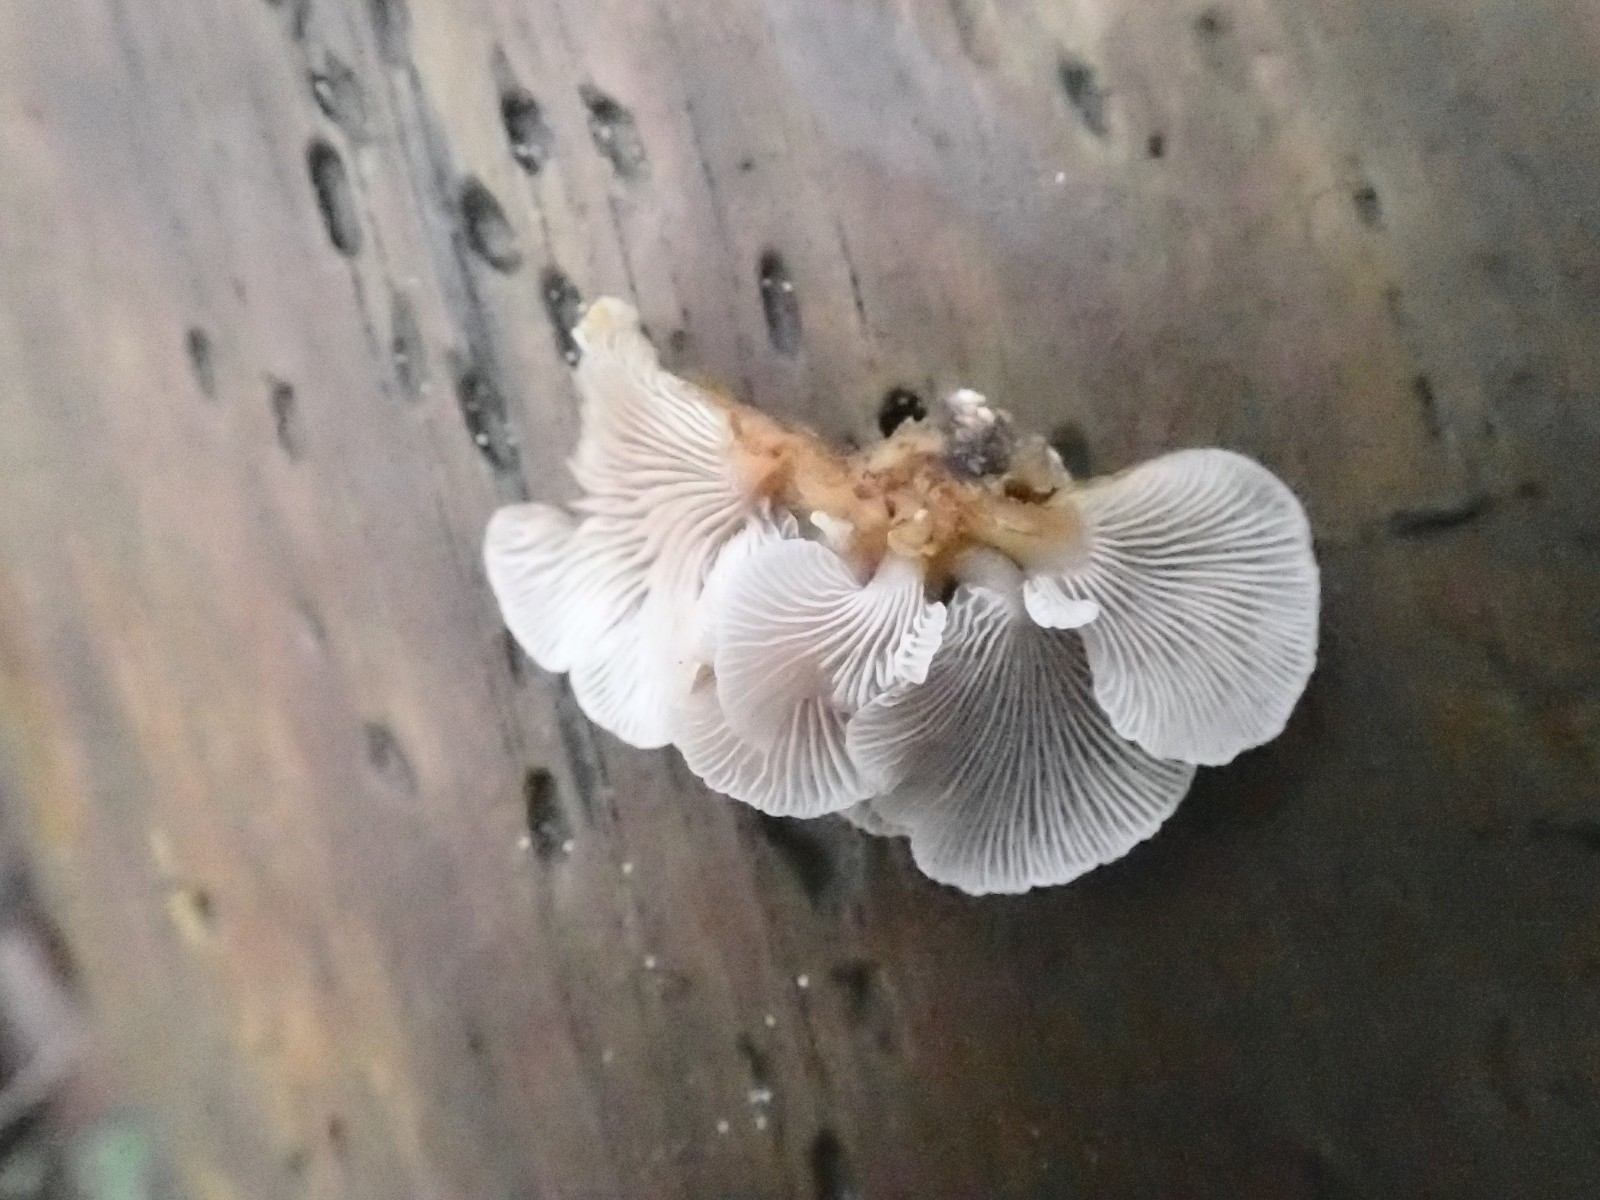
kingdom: Fungi
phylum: Basidiomycota
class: Agaricomycetes
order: Agaricales
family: Mycenaceae
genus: Panellus
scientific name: Panellus mitis
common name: mild epaulethat
